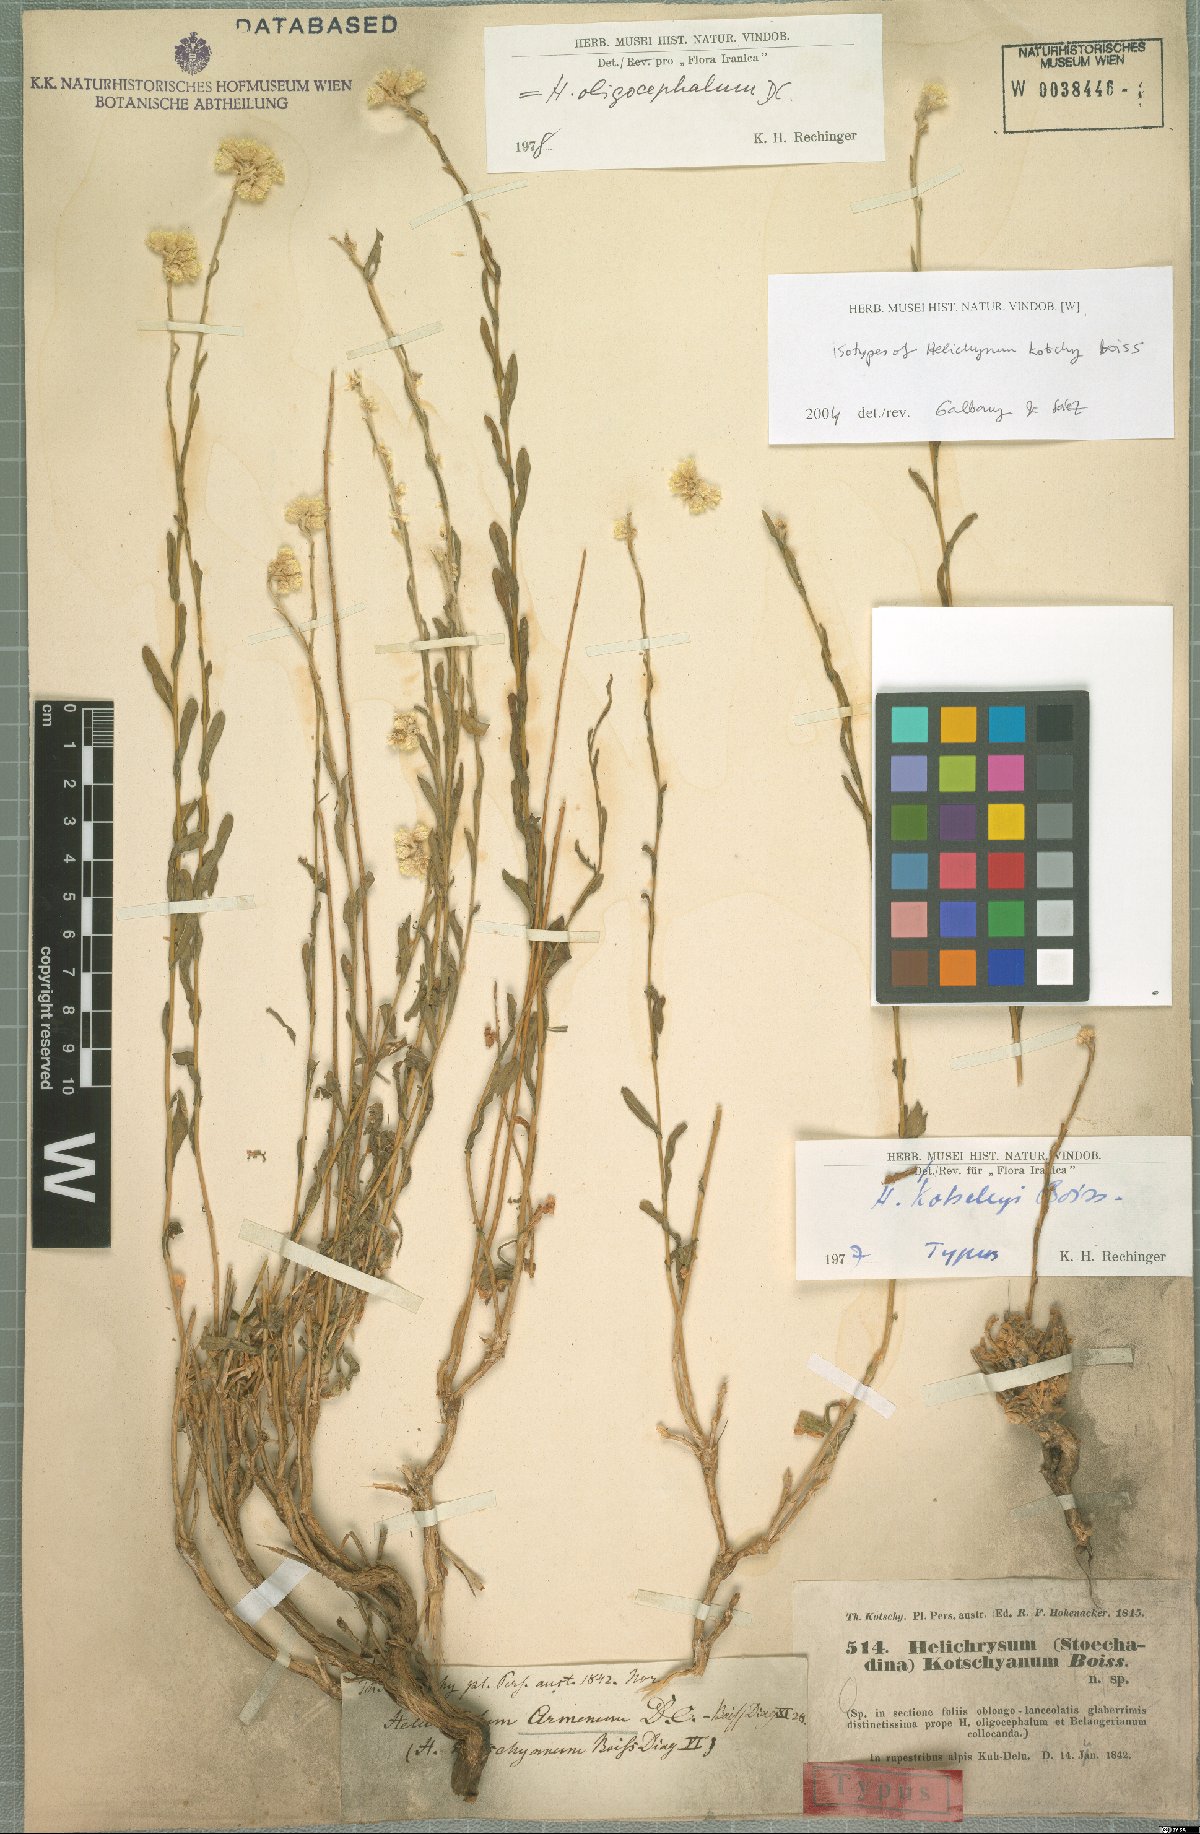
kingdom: Plantae
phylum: Tracheophyta
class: Magnoliopsida
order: Asterales
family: Asteraceae
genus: Helichrysum
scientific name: Helichrysum oligocephalum
